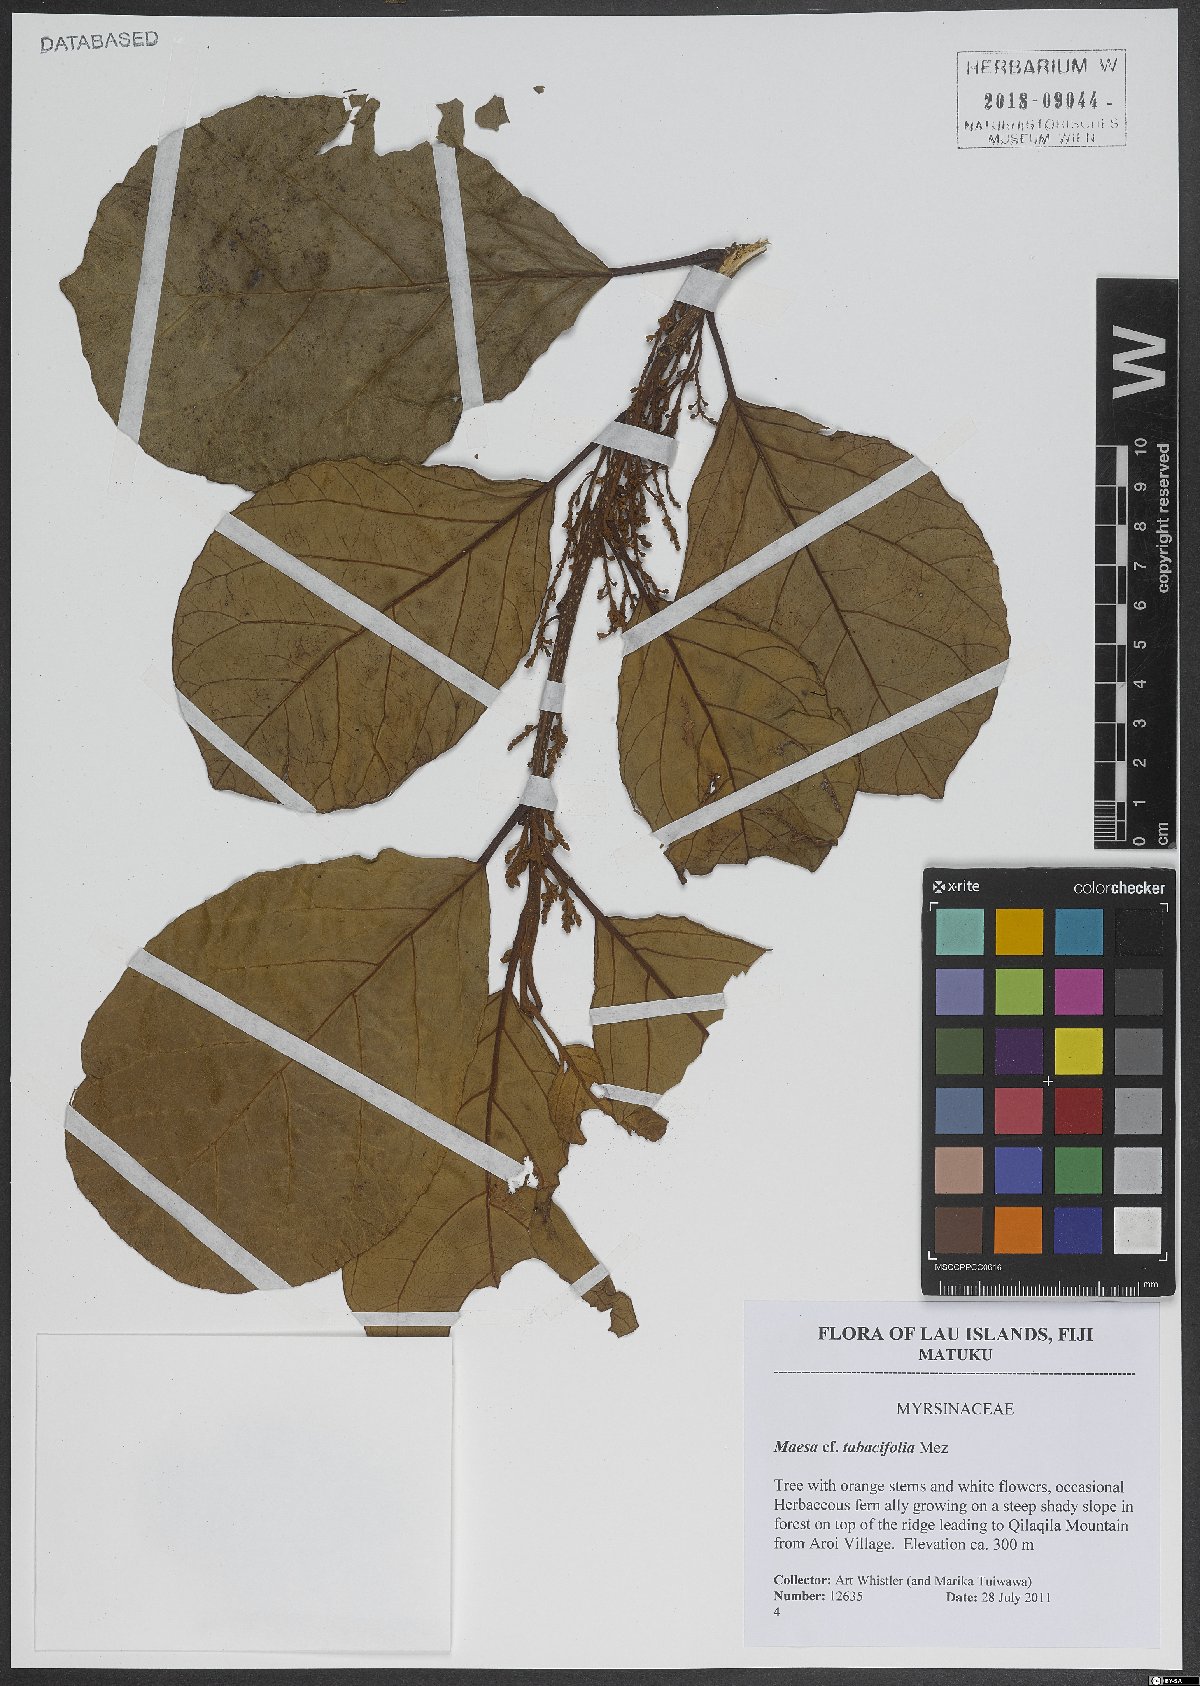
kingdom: Plantae
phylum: Tracheophyta
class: Magnoliopsida
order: Ericales
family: Primulaceae
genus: Maesa
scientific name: Maesa tabacifolia
